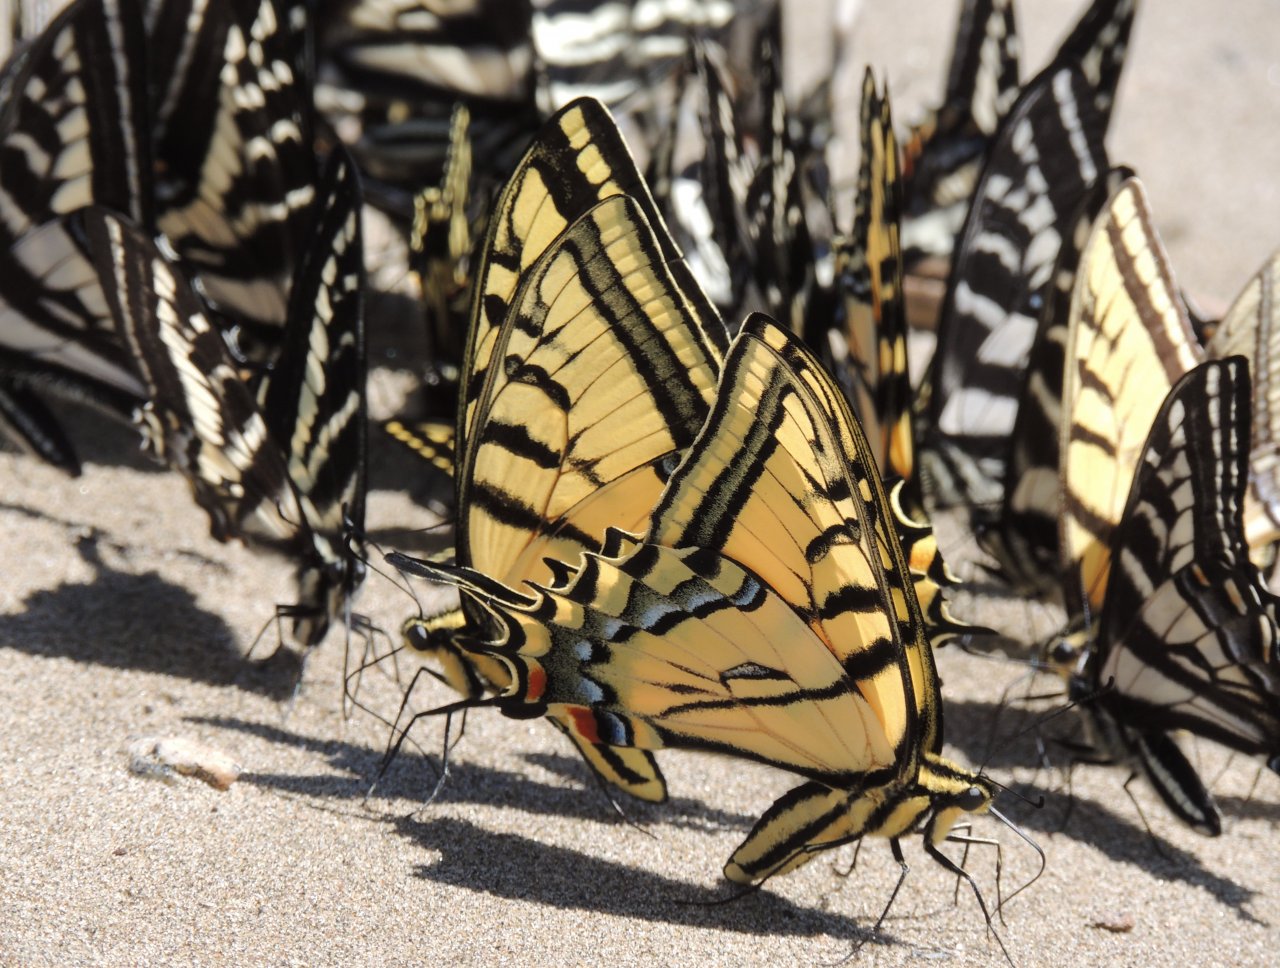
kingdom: Animalia
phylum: Arthropoda
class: Insecta
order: Lepidoptera
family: Papilionidae
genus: Papilio
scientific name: Papilio multicaudata
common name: Two-tailed Swallowtail
